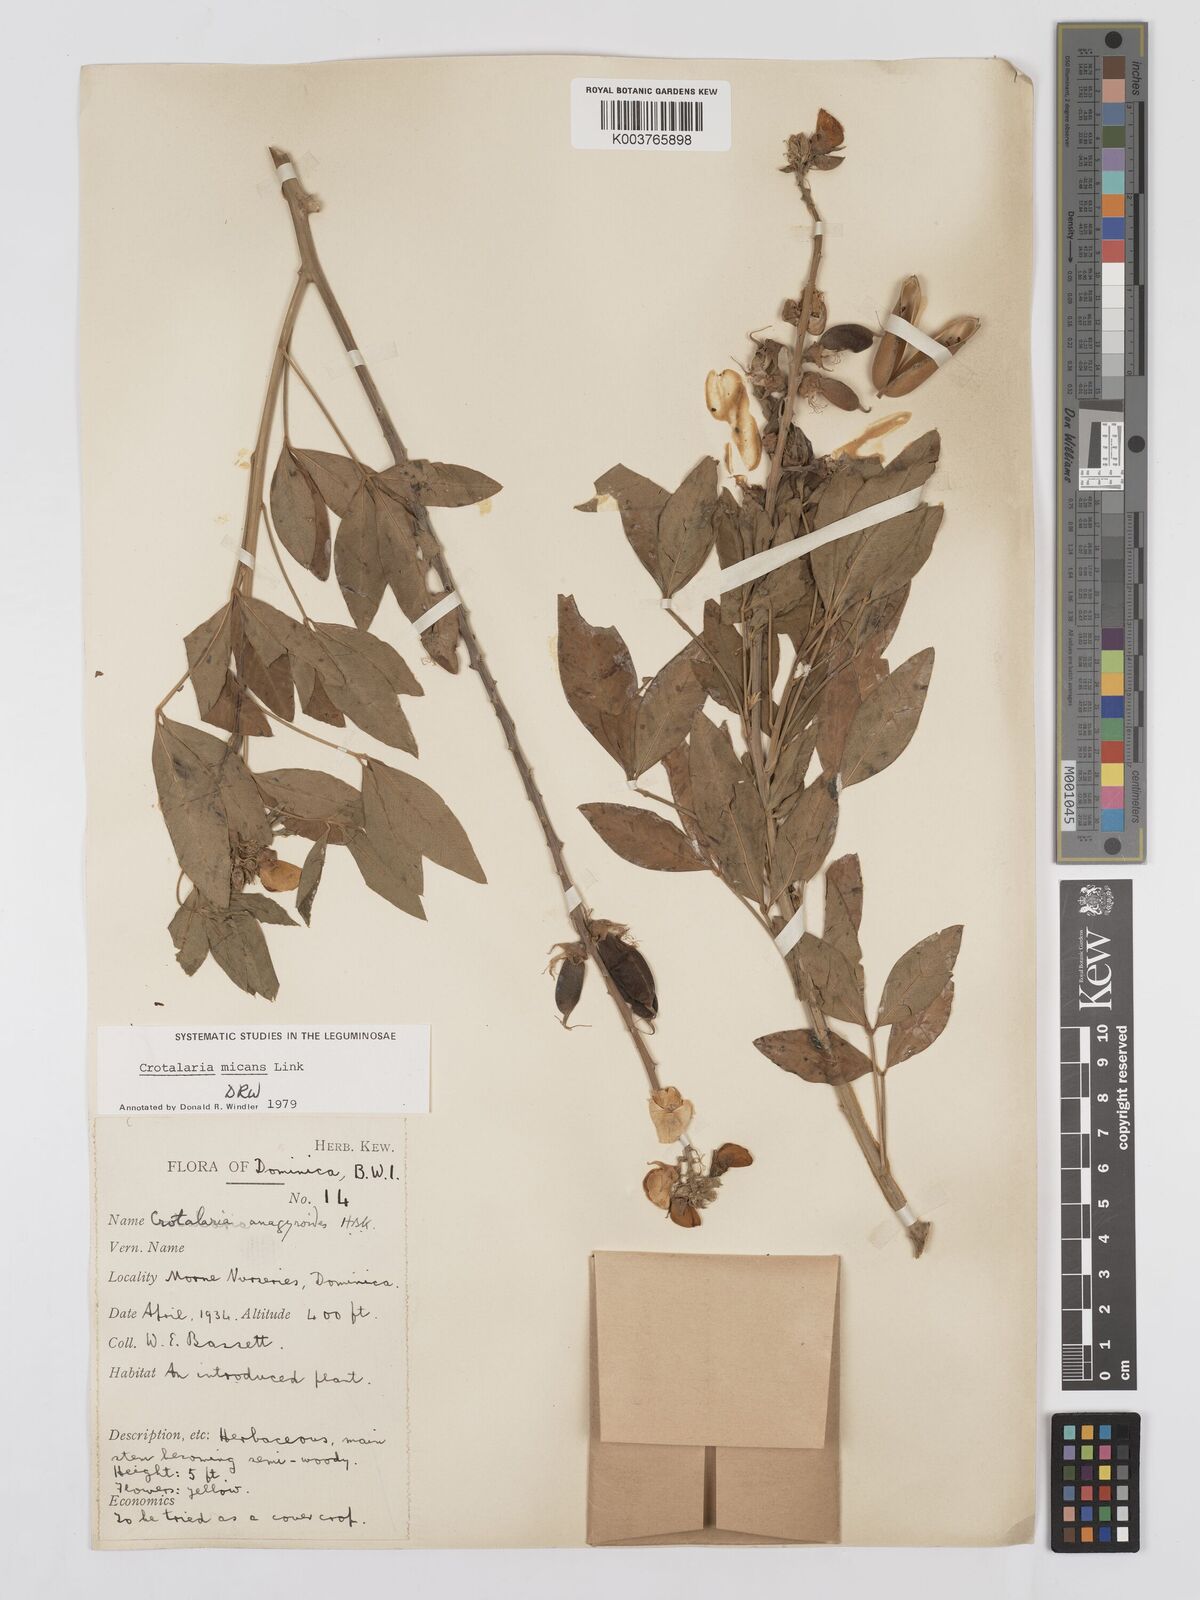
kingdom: Plantae
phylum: Tracheophyta
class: Magnoliopsida
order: Fabales
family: Fabaceae
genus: Crotalaria
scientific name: Crotalaria micans
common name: Caracas rattlebox
